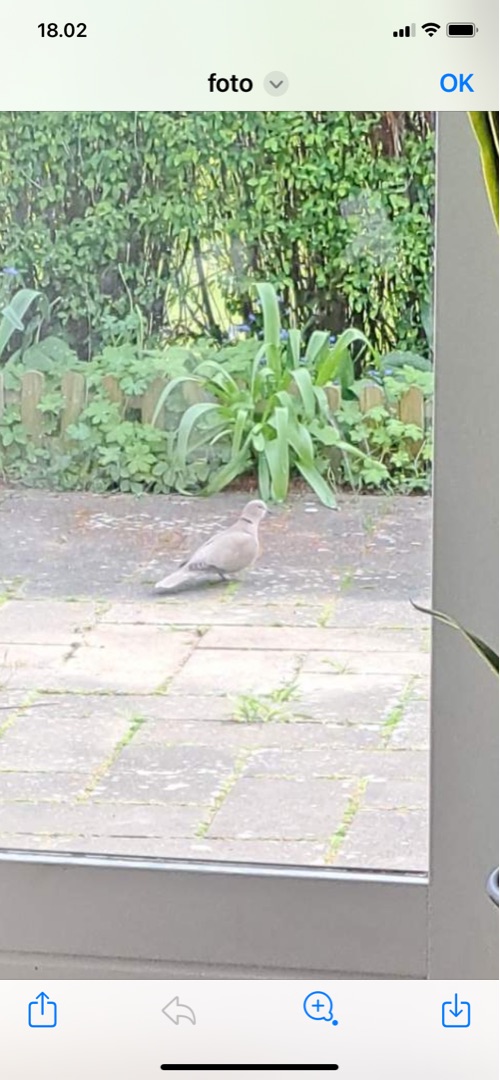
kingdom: Animalia
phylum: Chordata
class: Aves
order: Columbiformes
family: Columbidae
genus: Streptopelia
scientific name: Streptopelia decaocto
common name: Tyrkerdue
